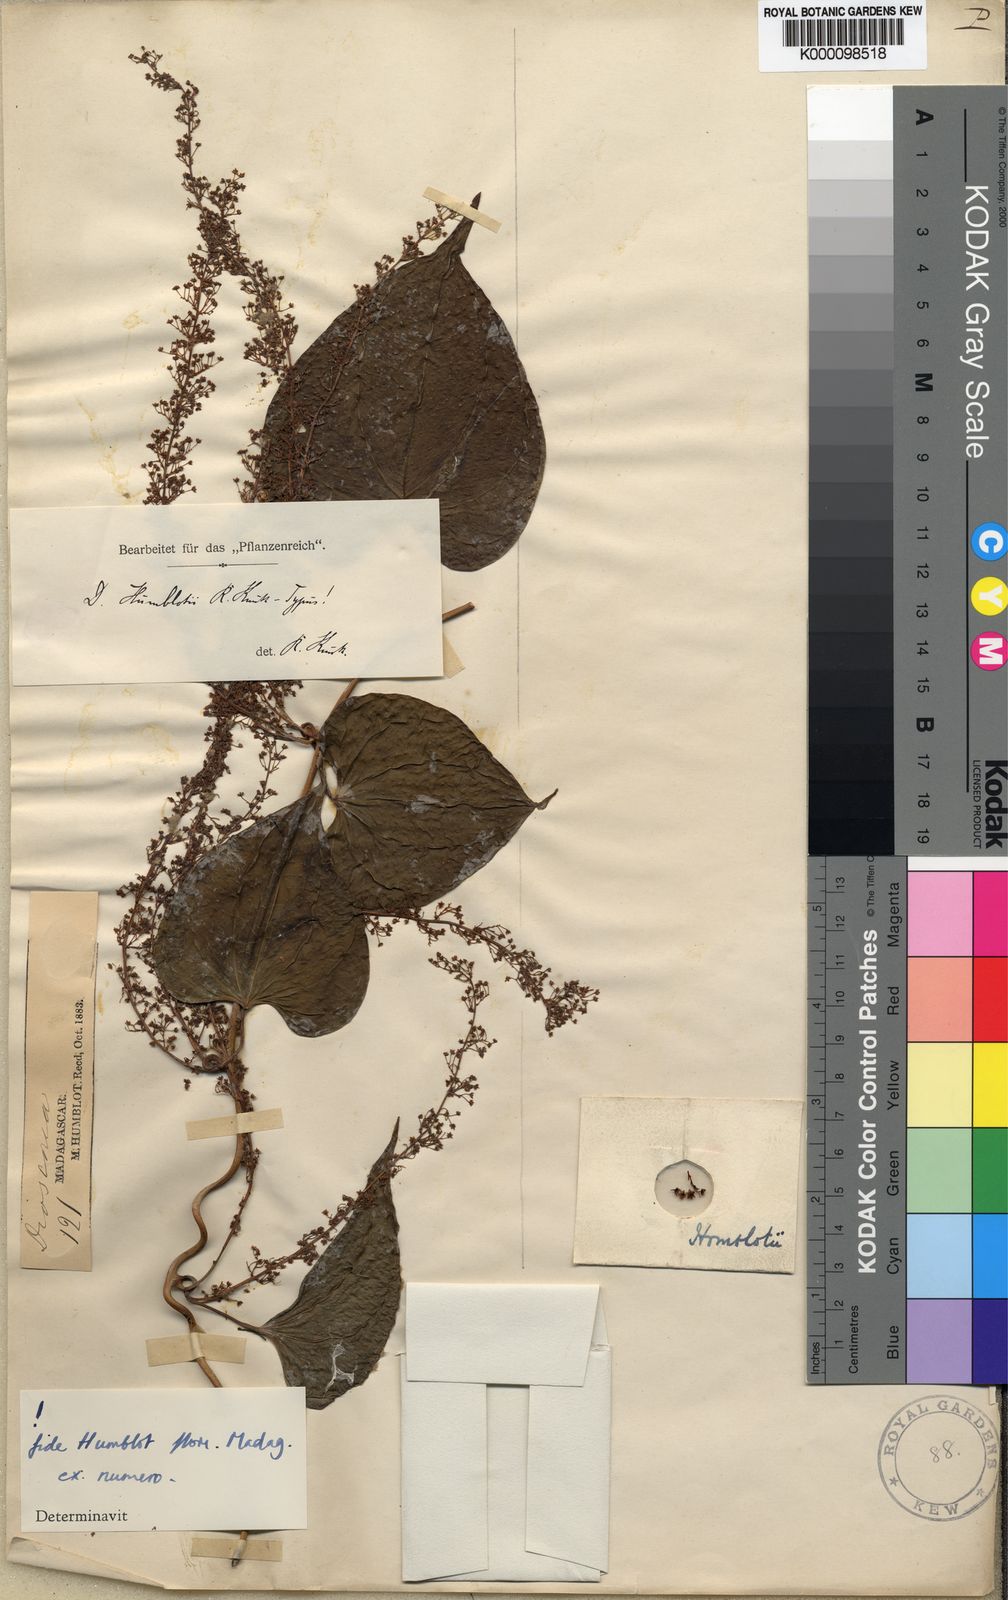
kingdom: Plantae
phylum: Tracheophyta
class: Liliopsida
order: Dioscoreales
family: Dioscoreaceae
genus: Dioscorea
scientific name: Dioscorea arcuatinervis
